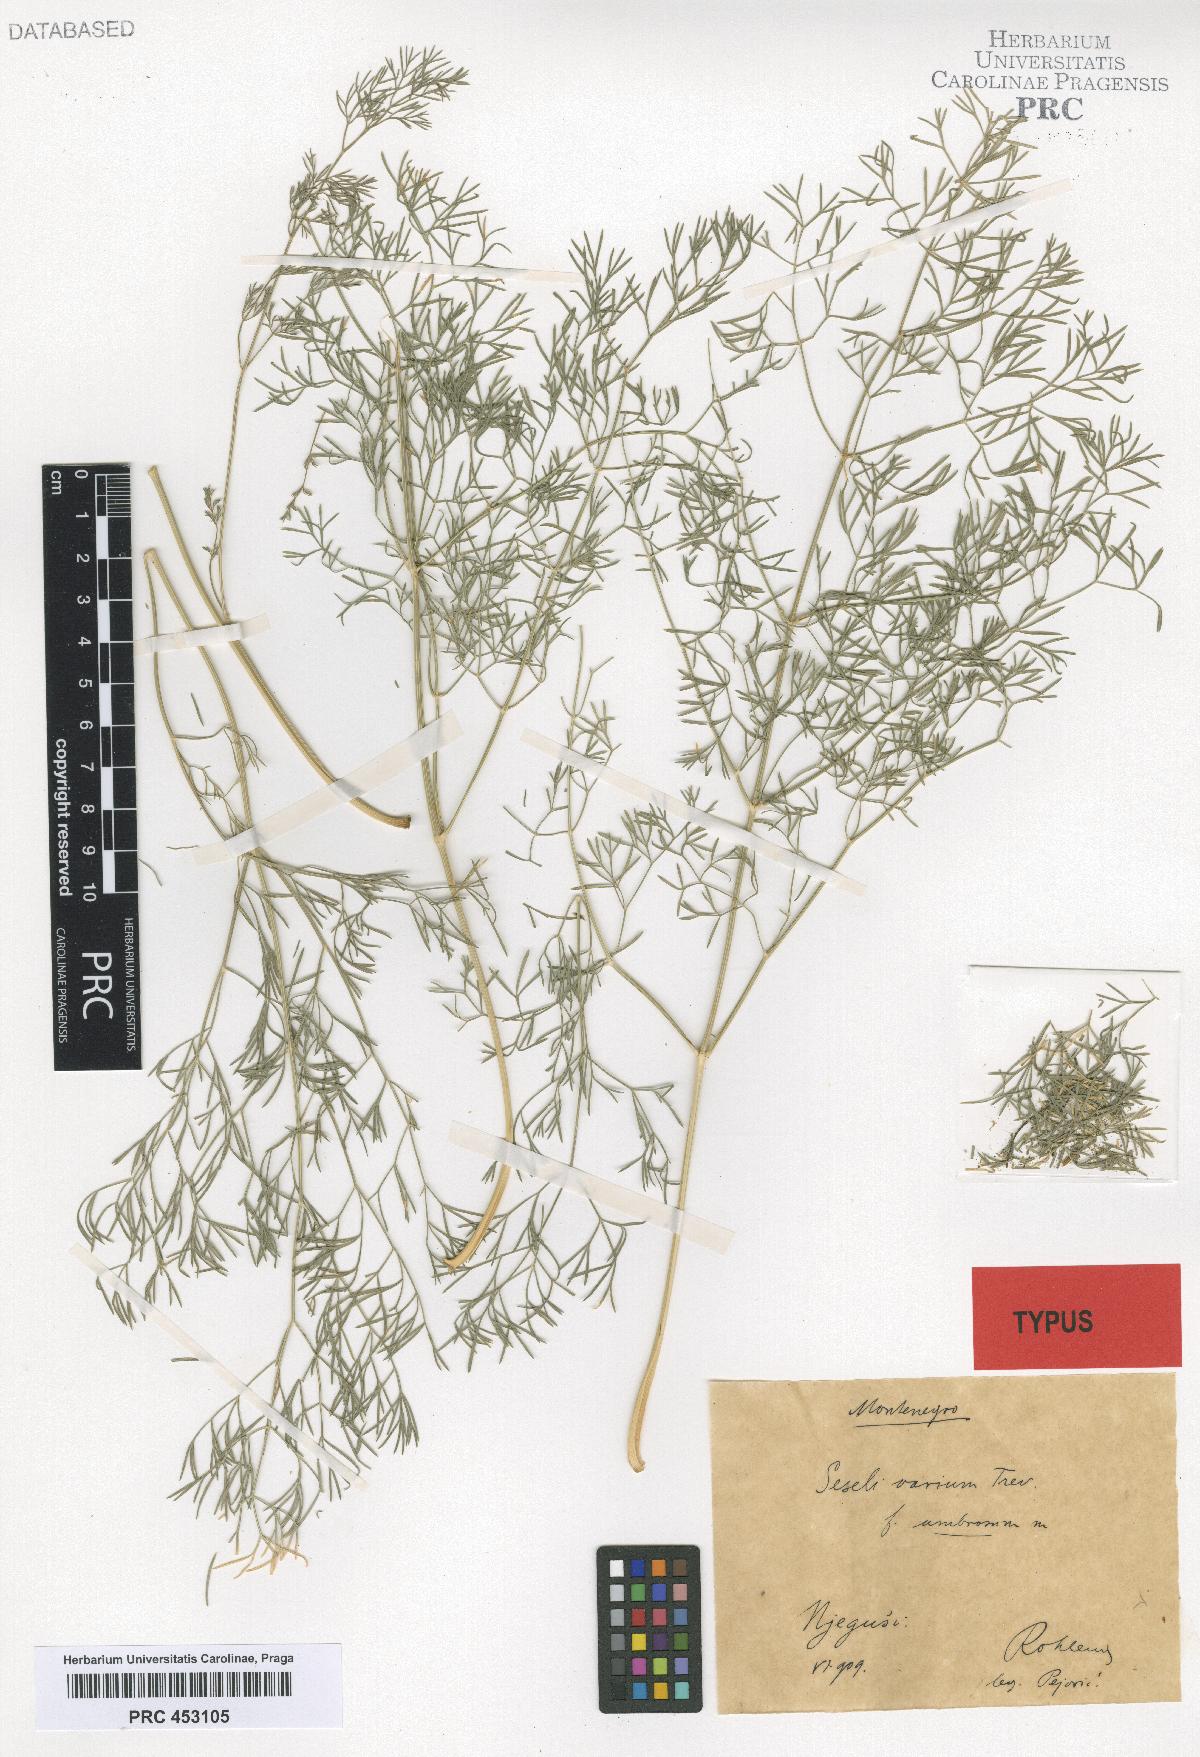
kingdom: Plantae
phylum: Tracheophyta
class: Magnoliopsida
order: Apiales
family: Apiaceae
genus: Seseli
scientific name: Seseli pallasii
